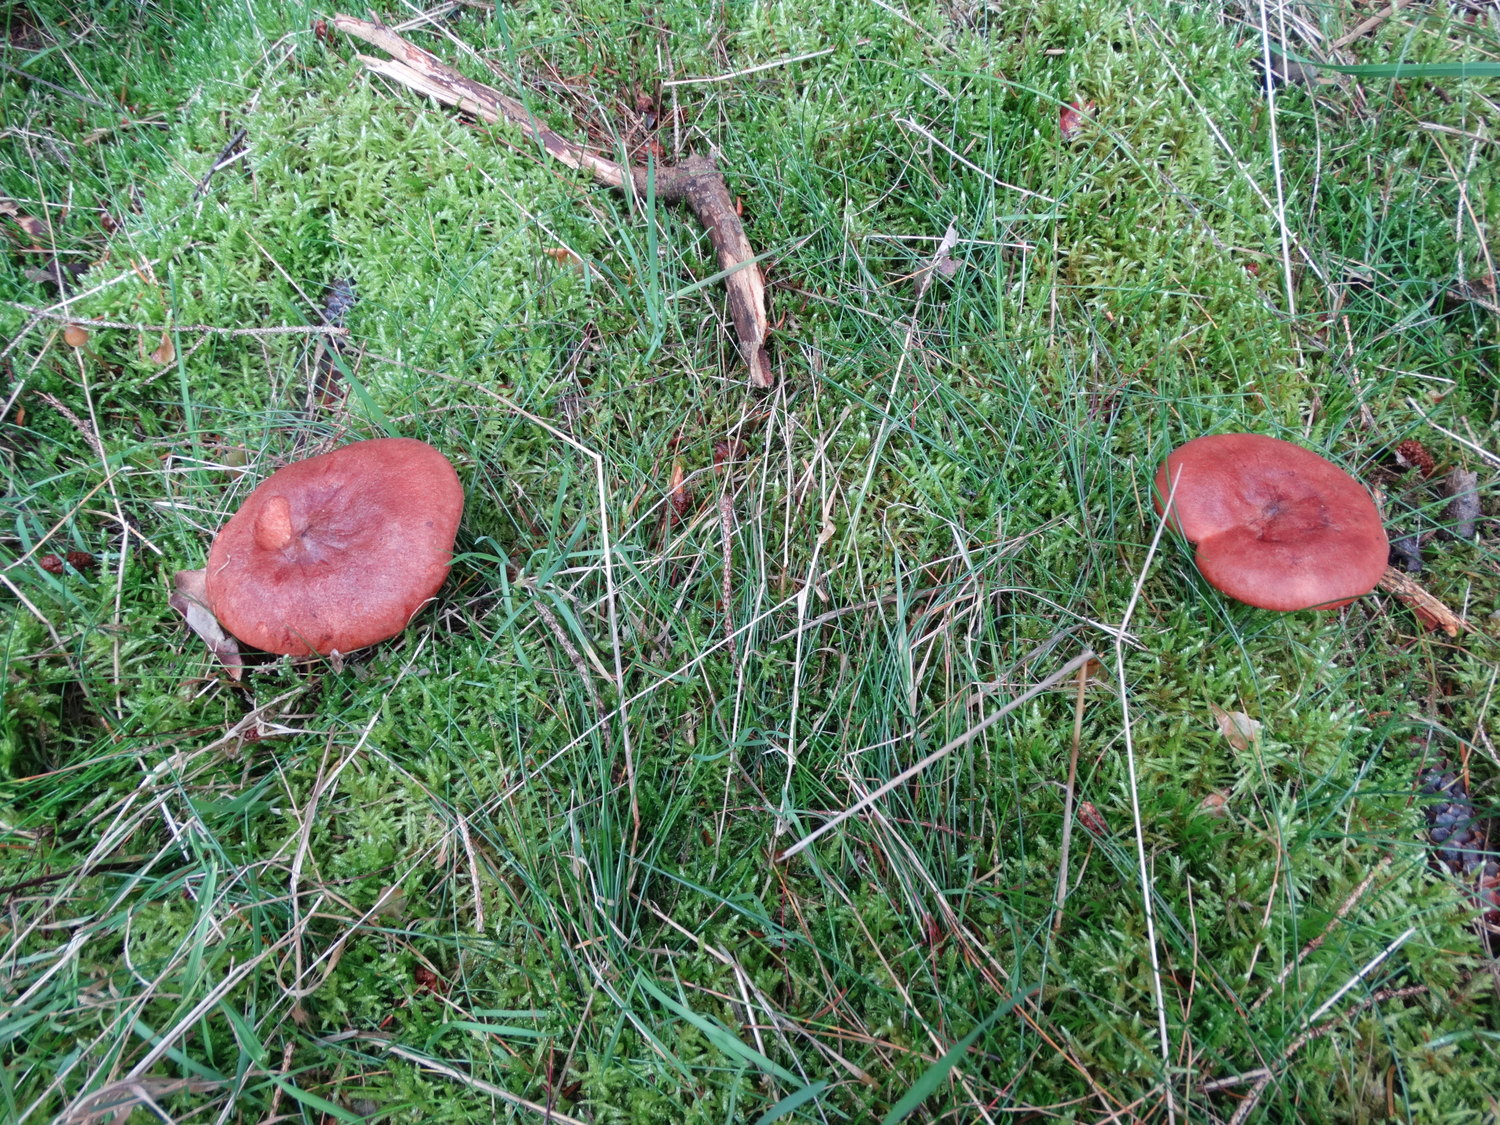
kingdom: Fungi
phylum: Basidiomycota
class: Agaricomycetes
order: Russulales
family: Russulaceae
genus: Lactarius
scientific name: Lactarius rufus
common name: rødbrun mælkehat
